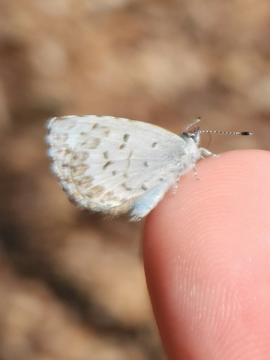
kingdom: Animalia
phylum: Arthropoda
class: Insecta
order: Lepidoptera
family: Lycaenidae
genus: Celastrina
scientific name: Celastrina lucia
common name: Northern Spring Azure
